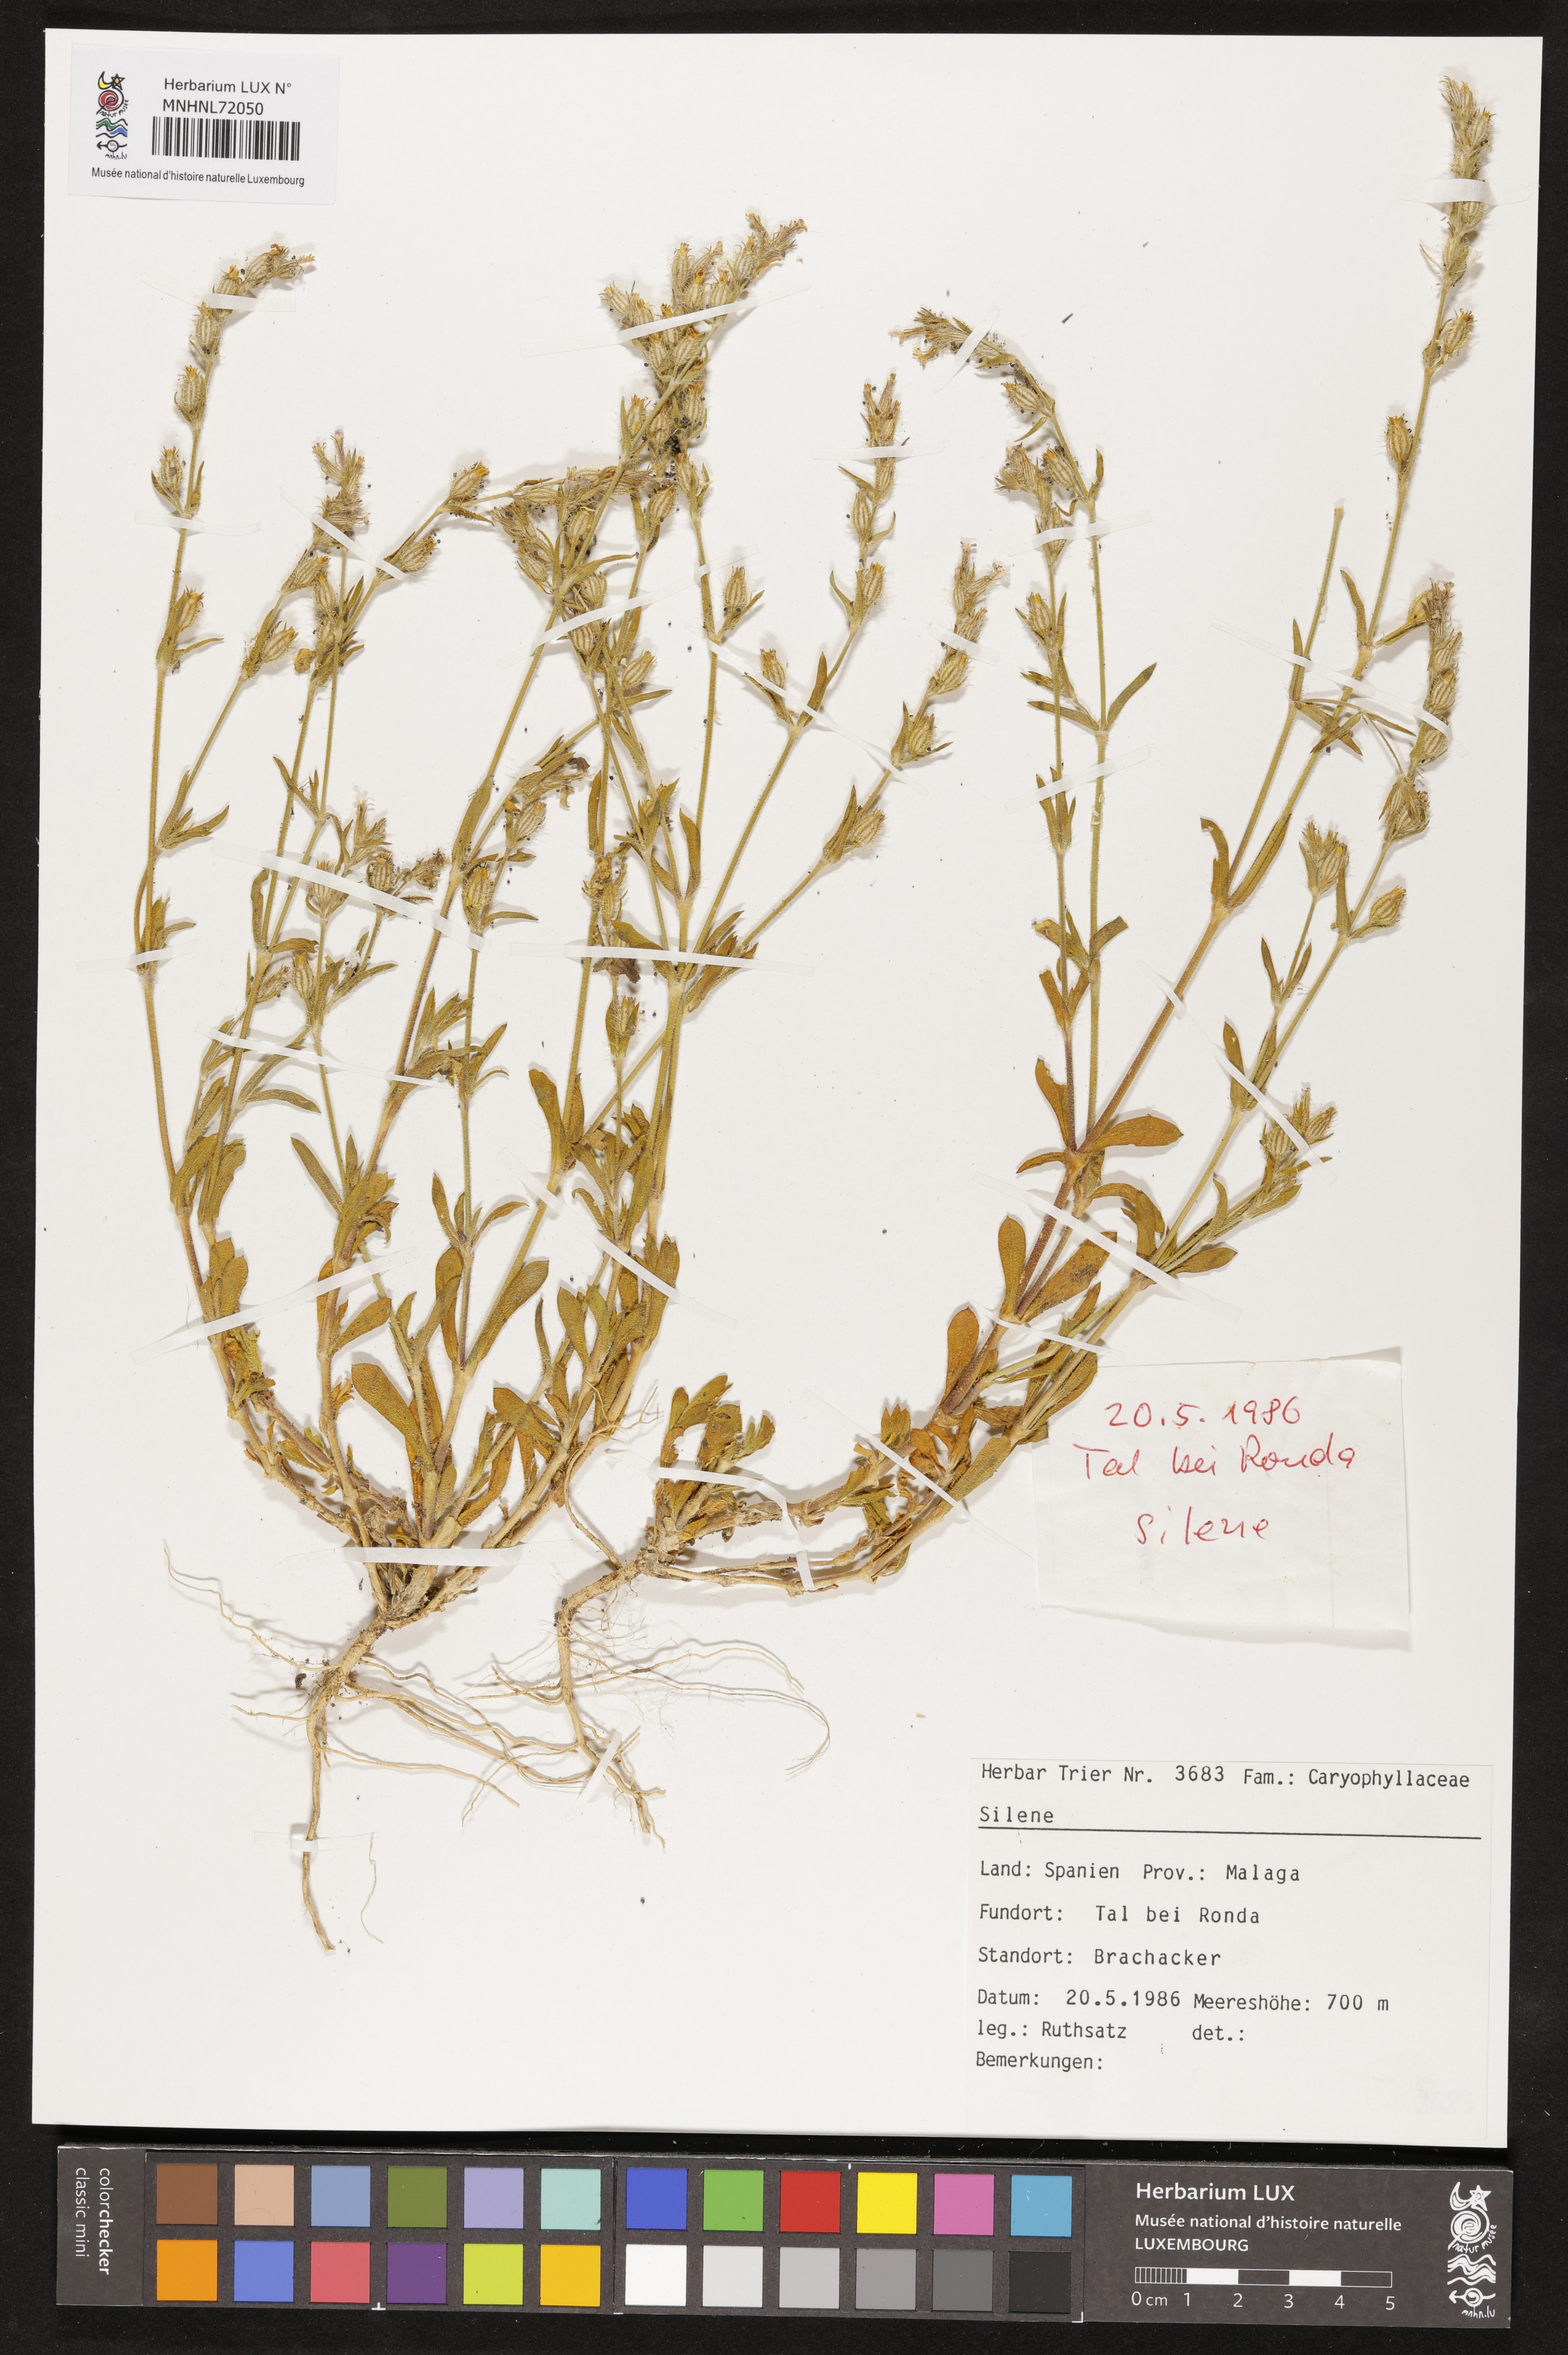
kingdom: Plantae
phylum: Tracheophyta
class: Magnoliopsida
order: Caryophyllales
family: Caryophyllaceae
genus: Silene
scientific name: Silene
